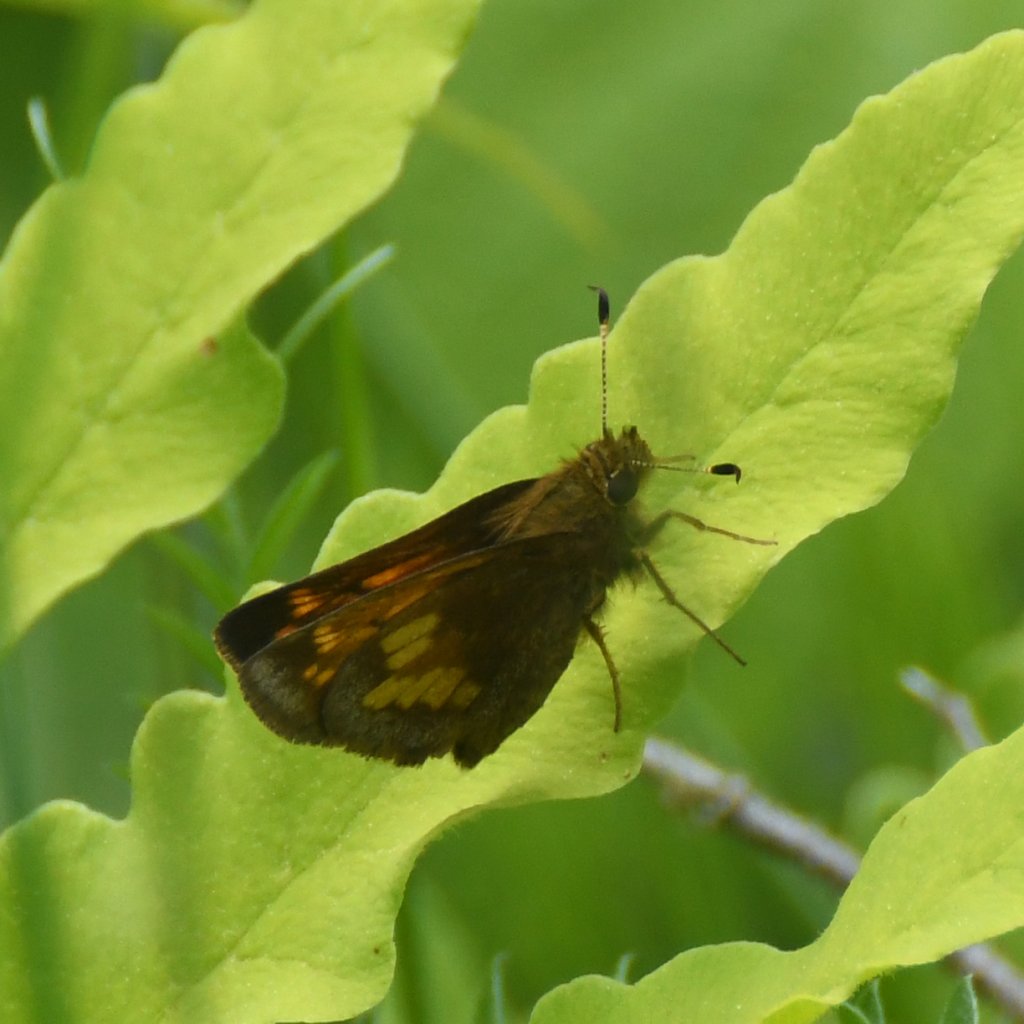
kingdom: Animalia
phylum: Arthropoda
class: Insecta
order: Lepidoptera
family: Hesperiidae
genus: Lon
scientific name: Lon hobomok
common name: Hobomok Skipper
